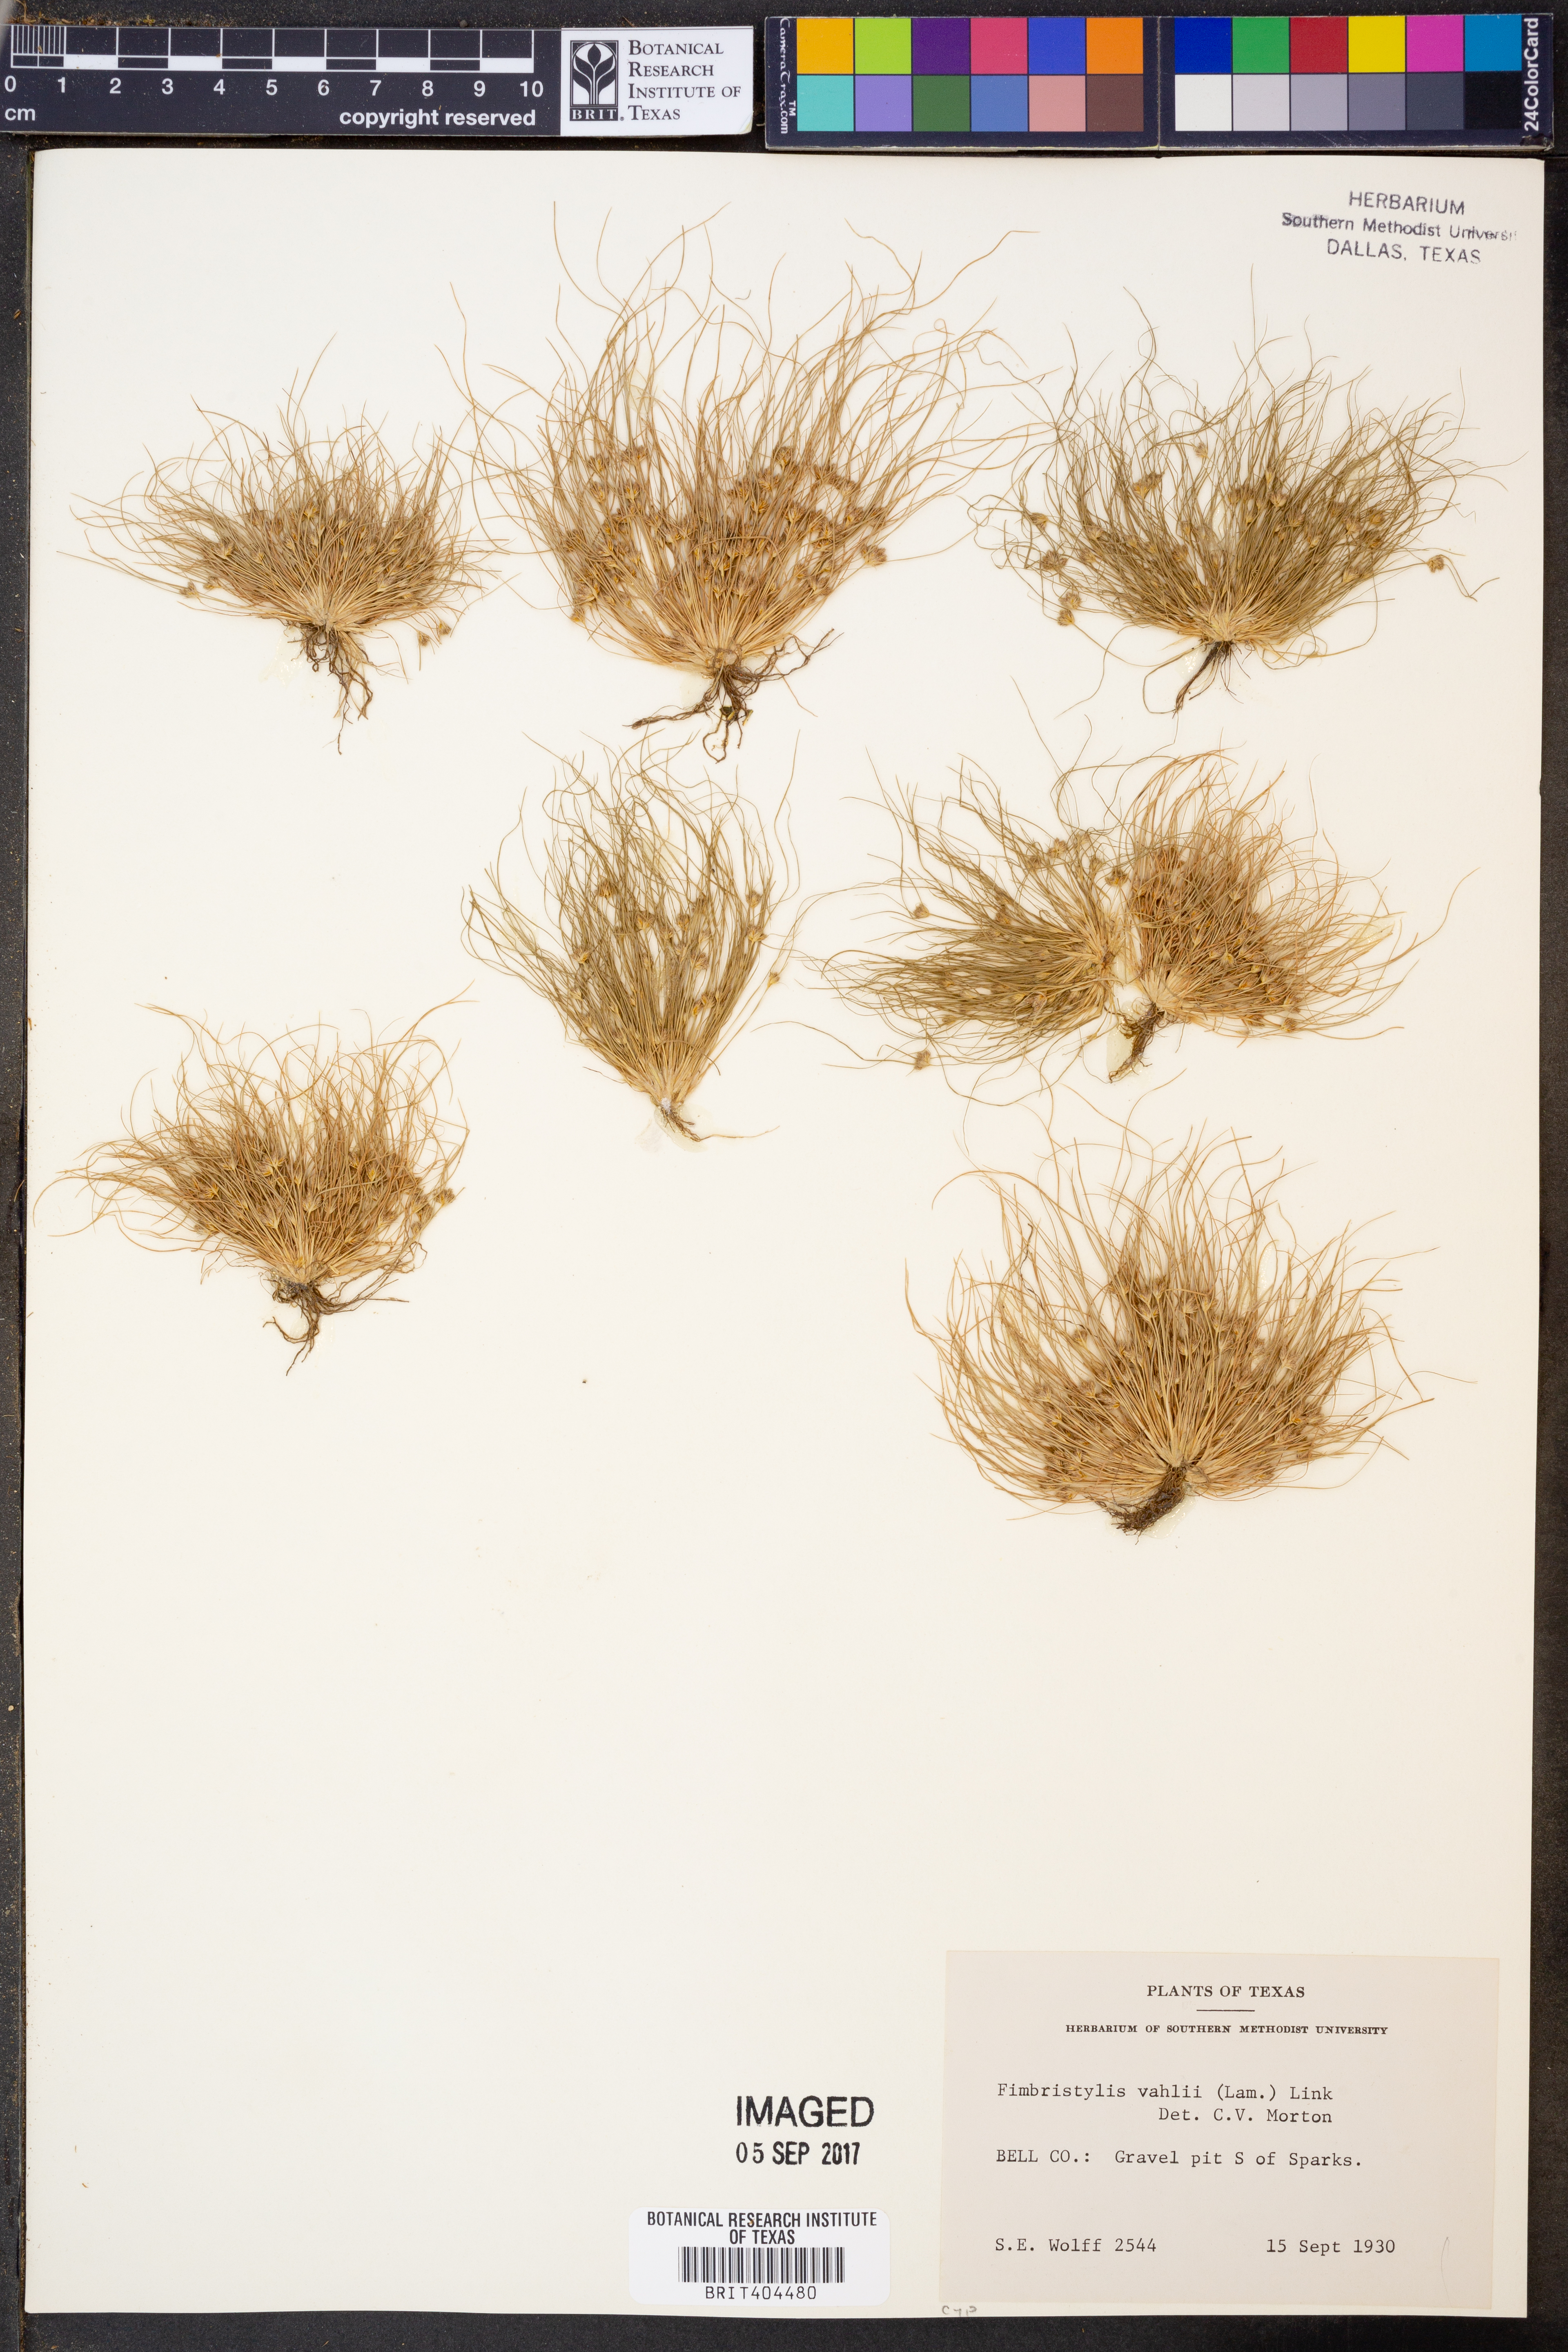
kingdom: Plantae
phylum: Tracheophyta
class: Liliopsida
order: Poales
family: Cyperaceae
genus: Fimbristylis
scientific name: Fimbristylis vahlii
